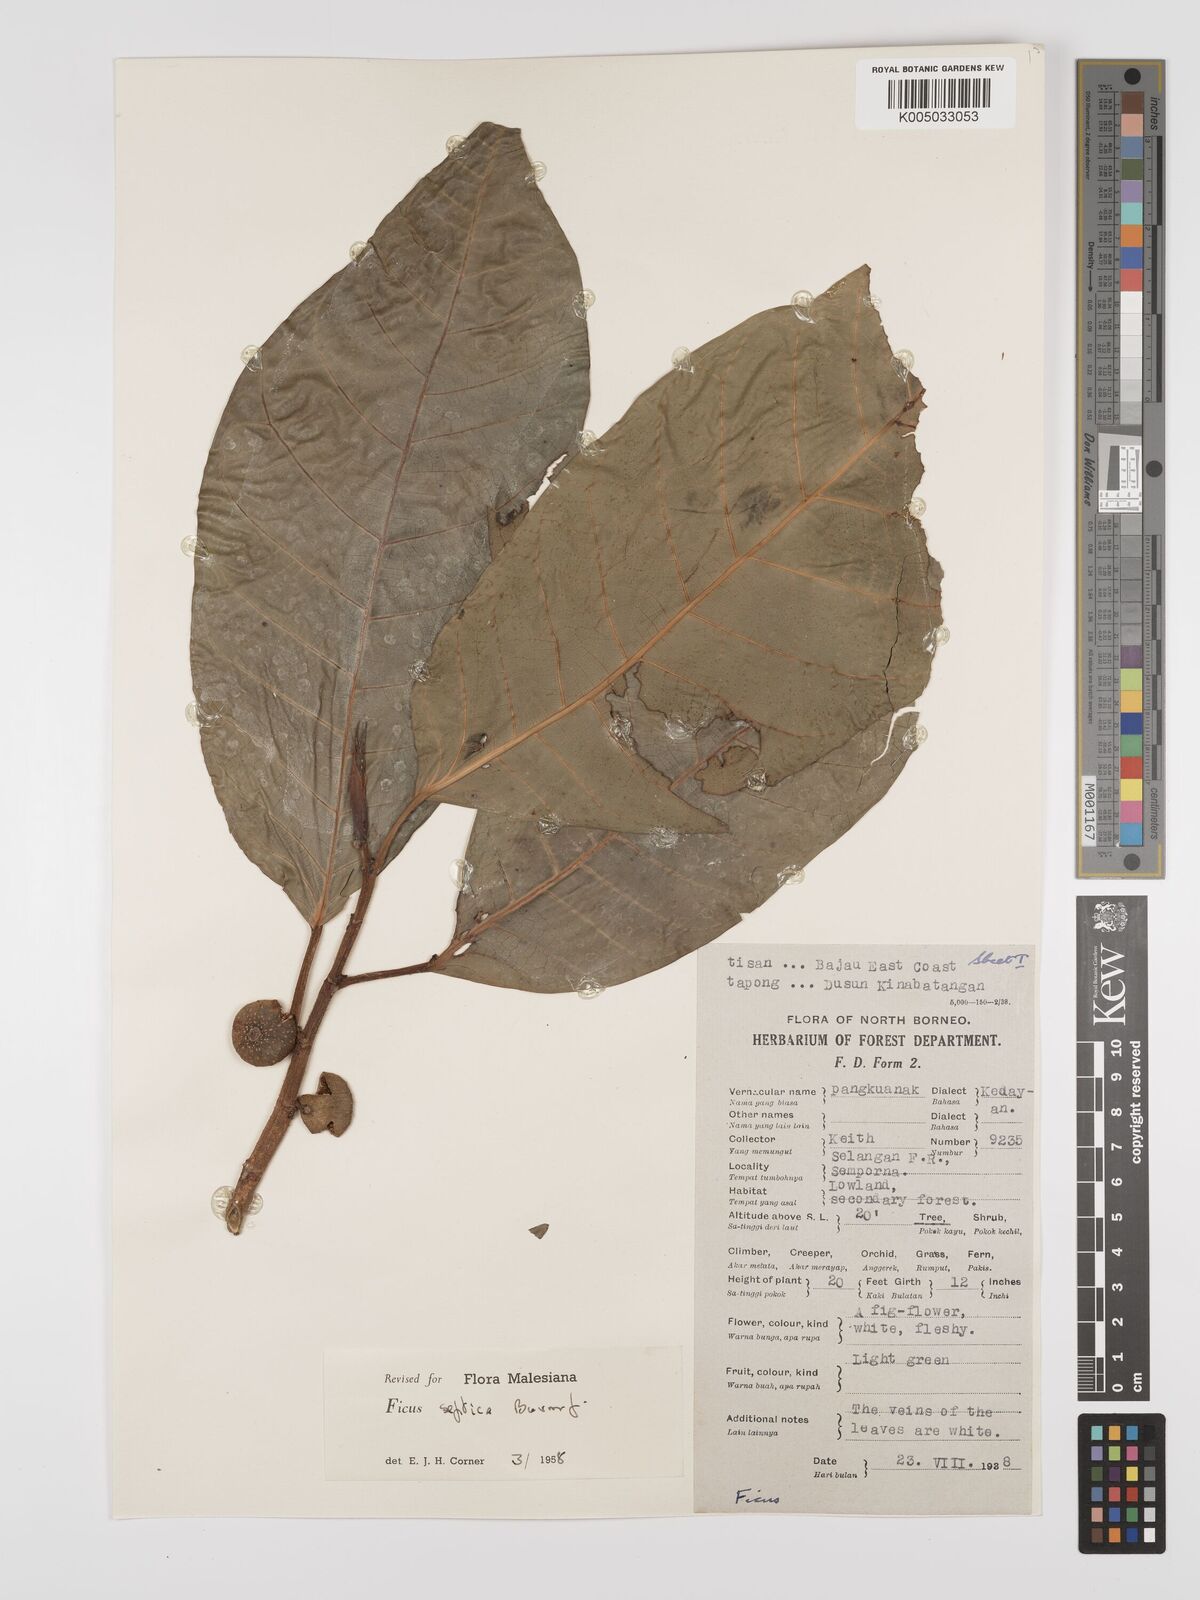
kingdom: Plantae
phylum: Tracheophyta
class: Magnoliopsida
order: Rosales
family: Moraceae
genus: Ficus
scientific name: Ficus septica
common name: Septic fig
